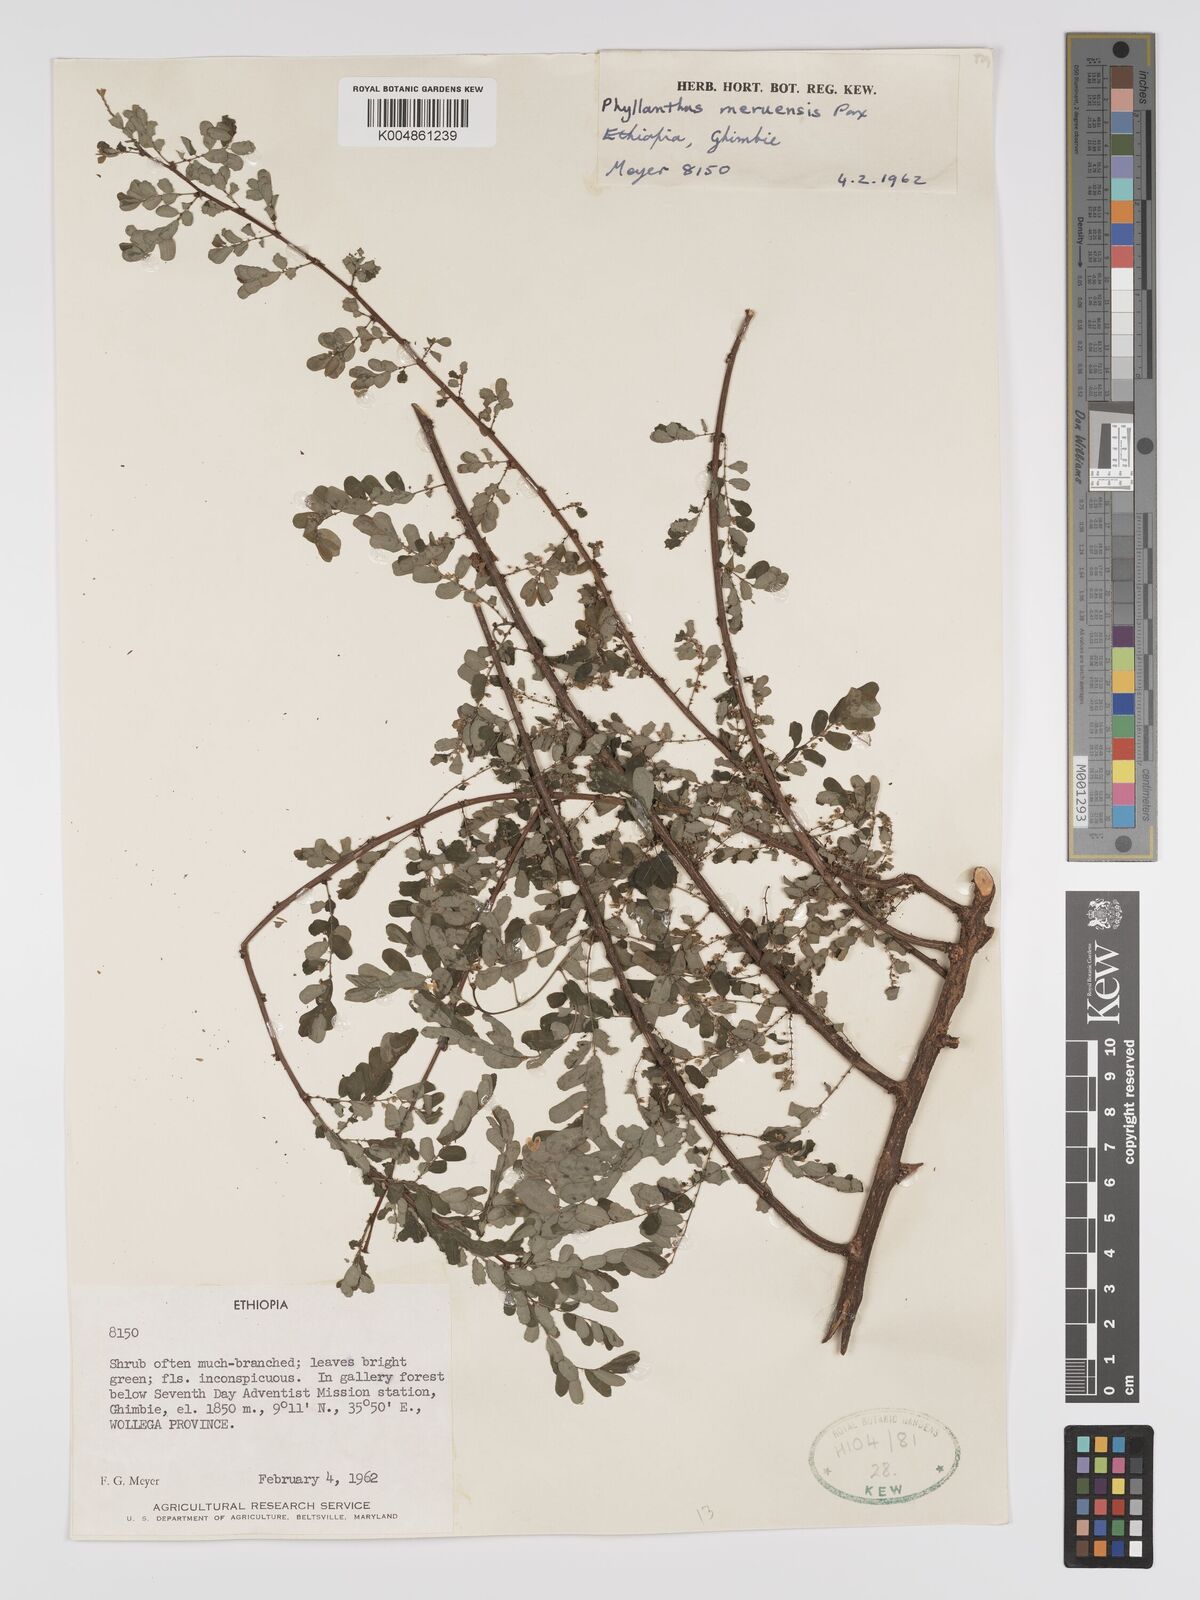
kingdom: Plantae
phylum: Tracheophyta
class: Magnoliopsida
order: Malpighiales
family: Phyllanthaceae
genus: Phyllanthus
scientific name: Phyllanthus sepialis
